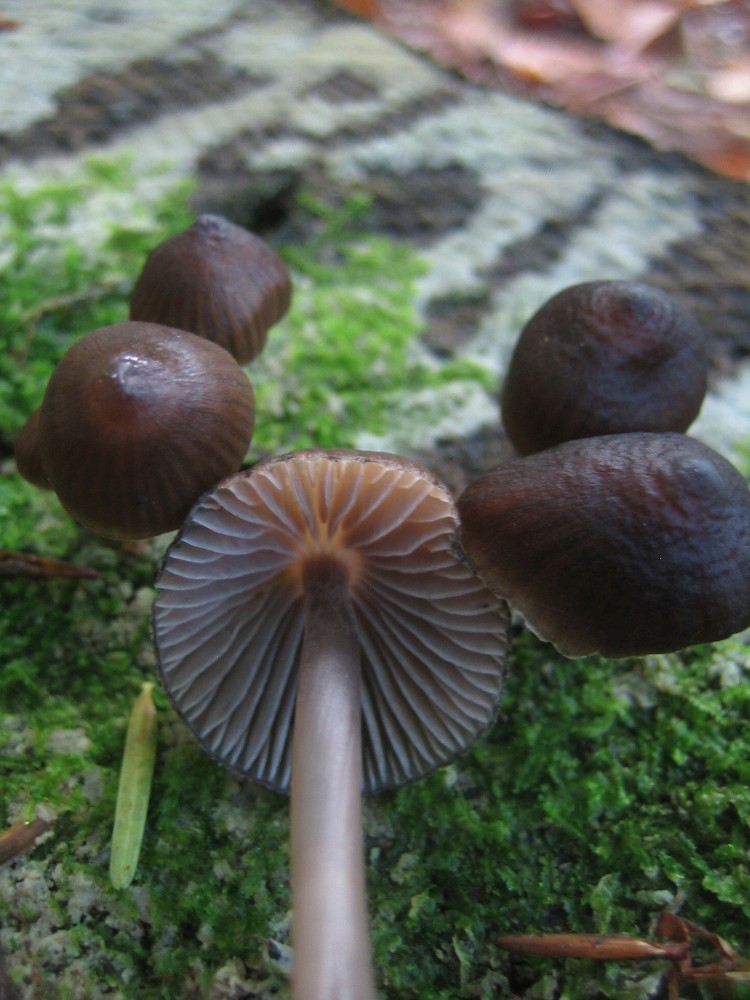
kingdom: Fungi
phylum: Basidiomycota
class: Agaricomycetes
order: Agaricales
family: Mycenaceae
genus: Mycena
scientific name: Mycena stipata
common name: stinkende huesvamp
